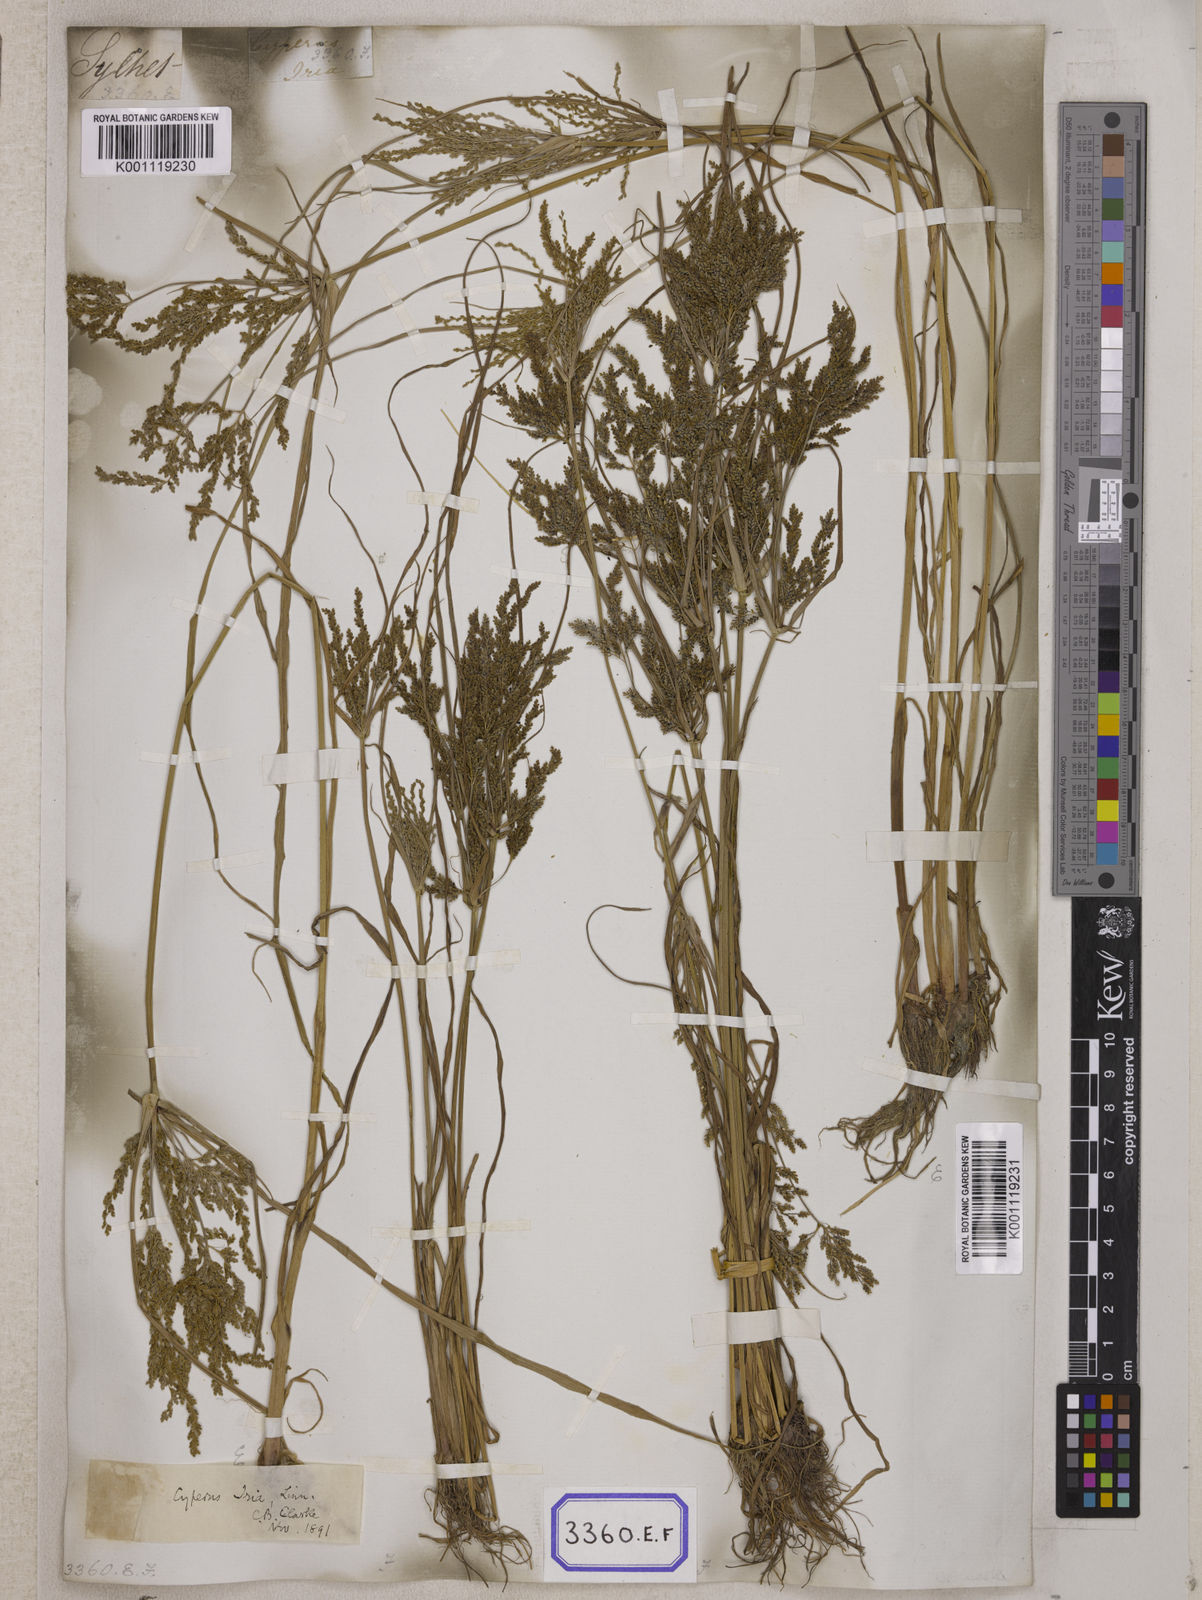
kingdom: Plantae
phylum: Tracheophyta
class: Liliopsida
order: Poales
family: Cyperaceae
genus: Cyperus
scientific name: Cyperus
